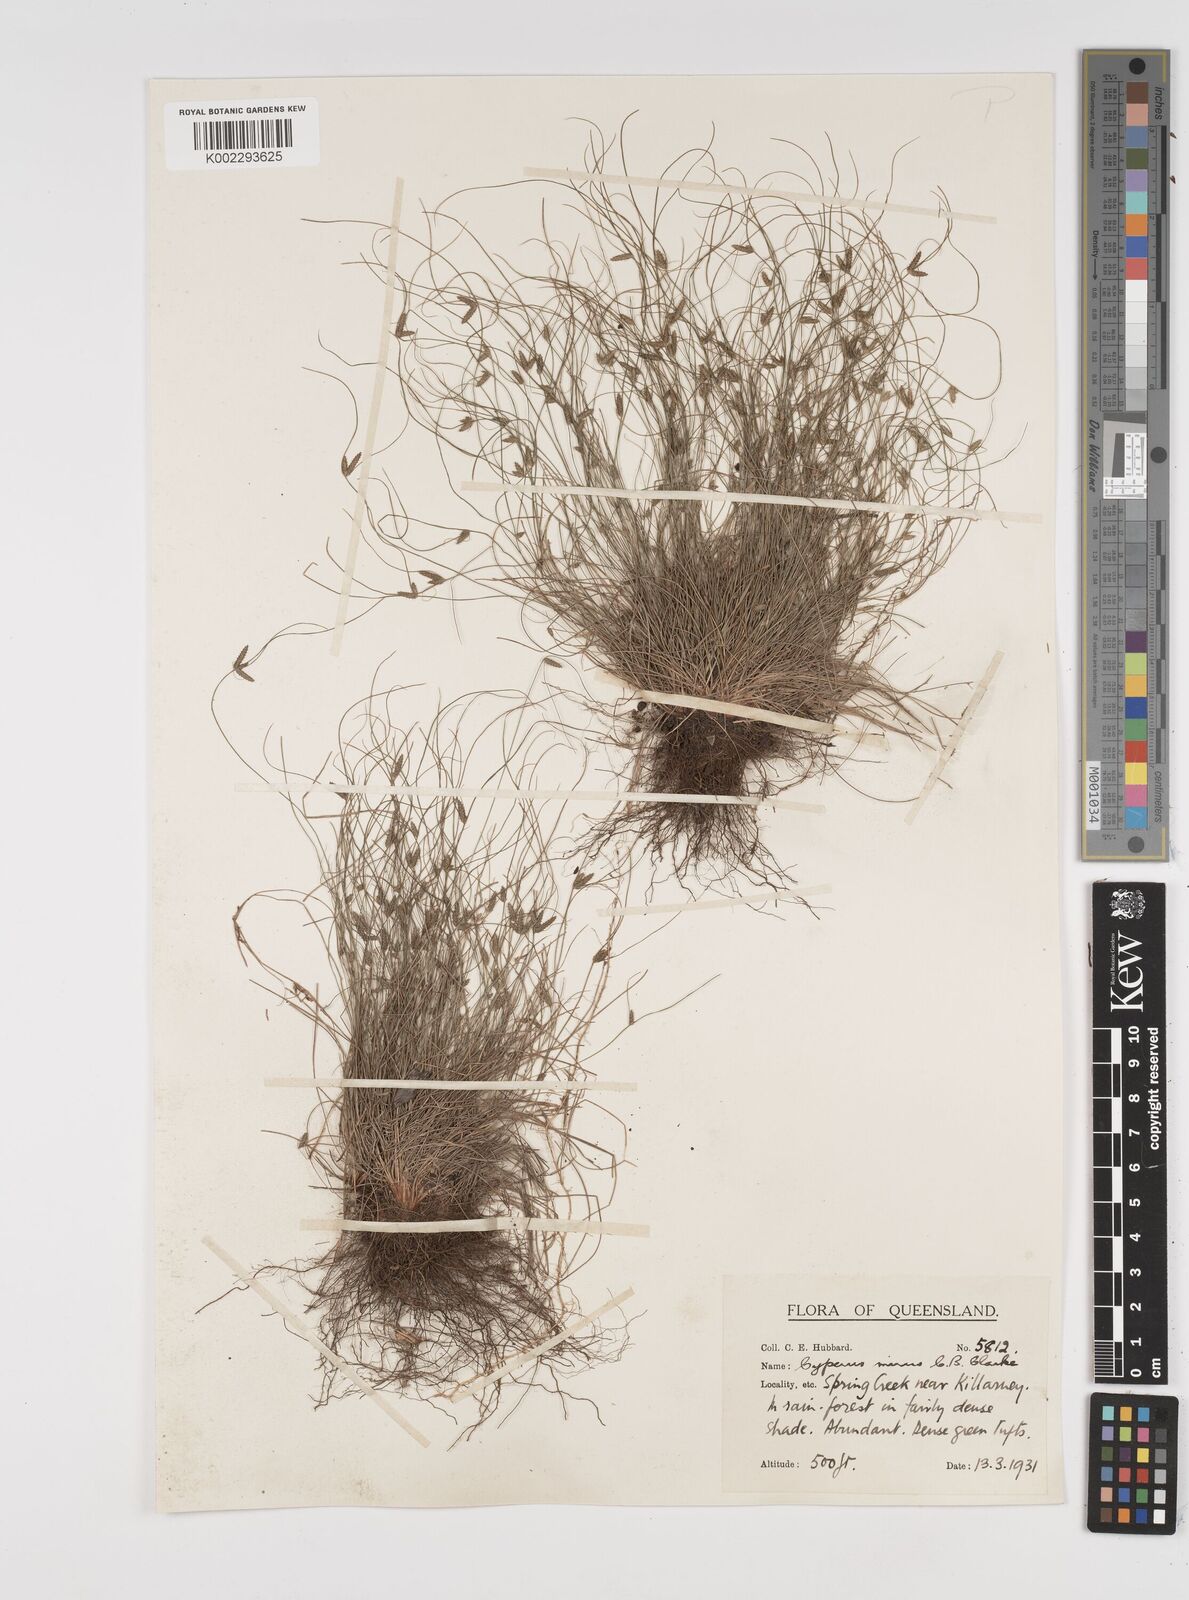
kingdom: Plantae
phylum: Tracheophyta
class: Liliopsida
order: Poales
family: Cyperaceae
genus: Cyperus
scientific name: Cyperus mirus
